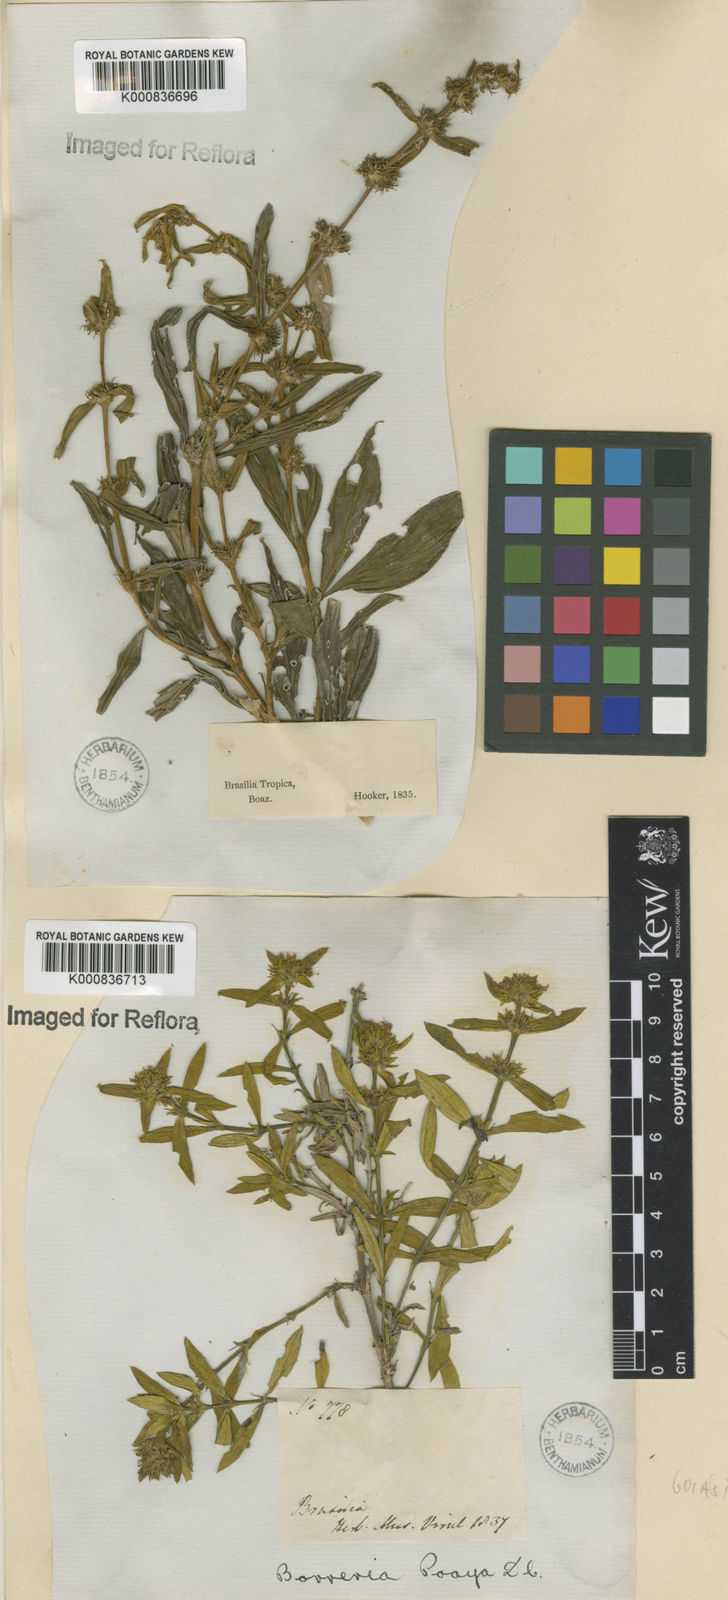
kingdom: Plantae
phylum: Tracheophyta
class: Magnoliopsida
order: Gentianales
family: Rubiaceae
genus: Spermacoce
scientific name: Spermacoce poaya
